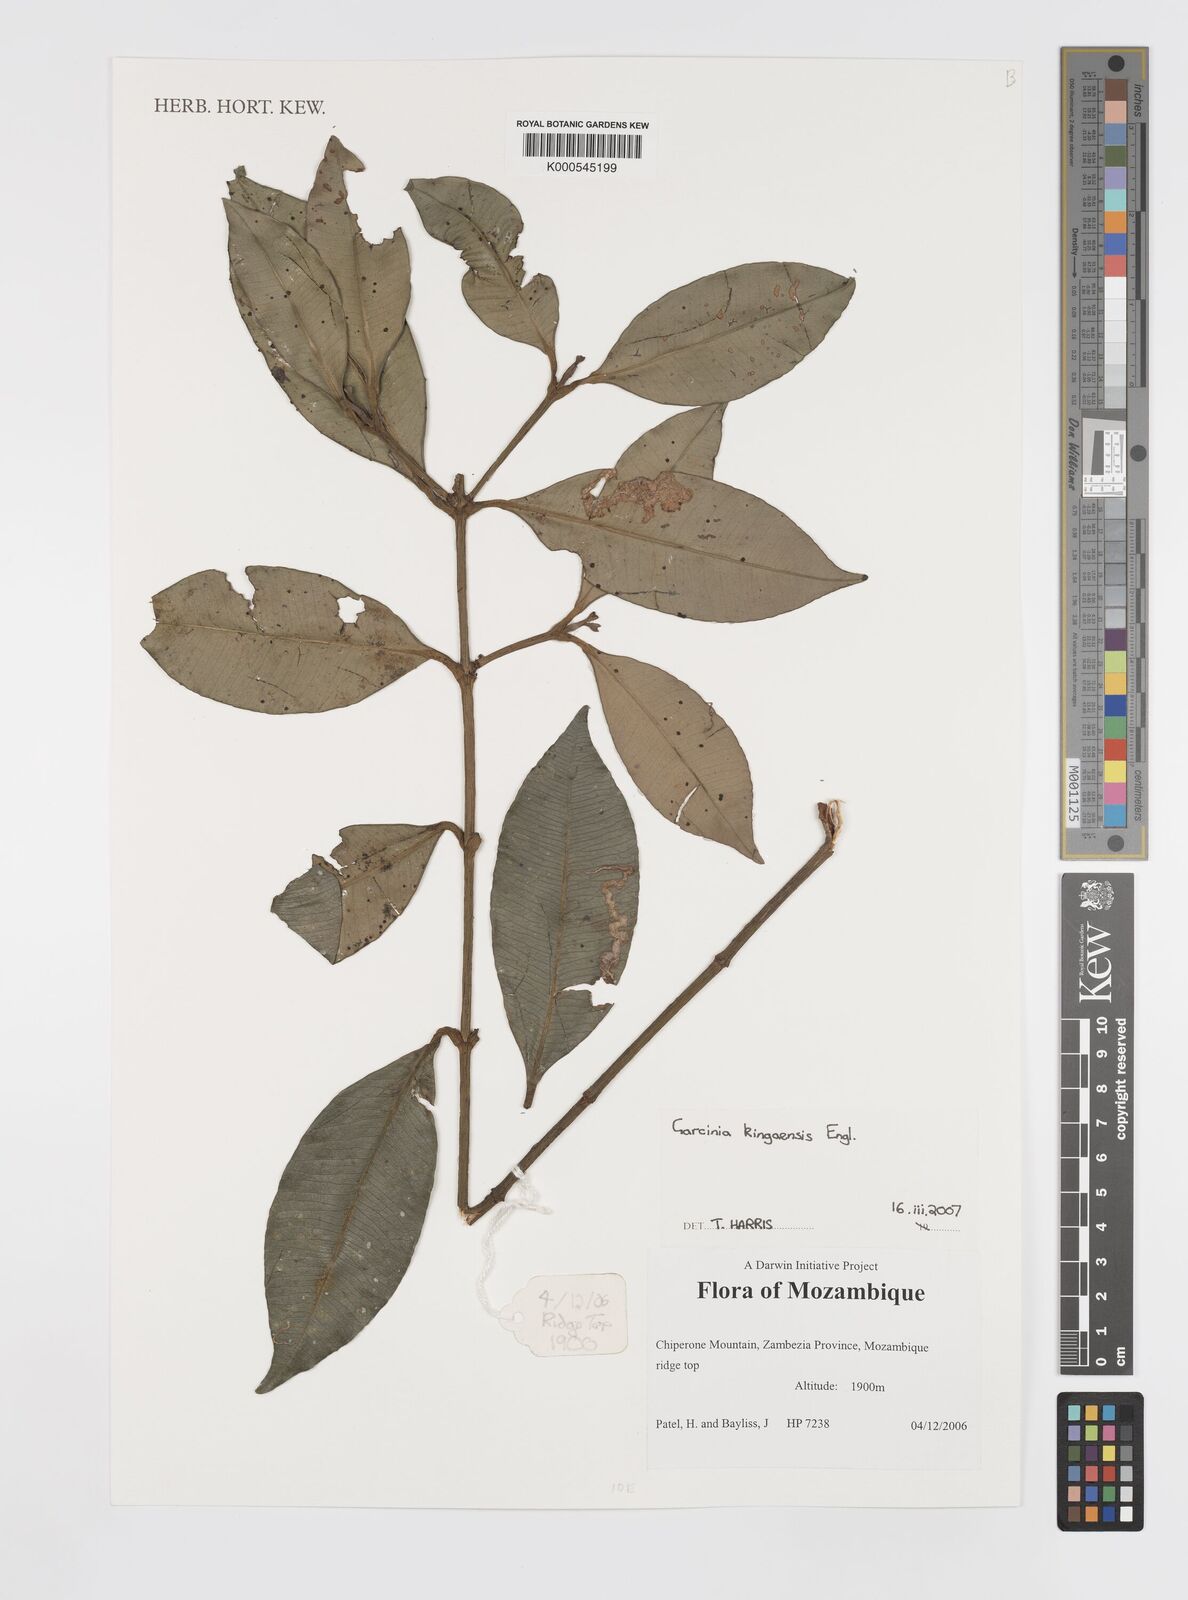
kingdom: Plantae
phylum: Tracheophyta
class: Magnoliopsida
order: Malpighiales
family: Clusiaceae
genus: Garcinia
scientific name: Garcinia kingaensis
